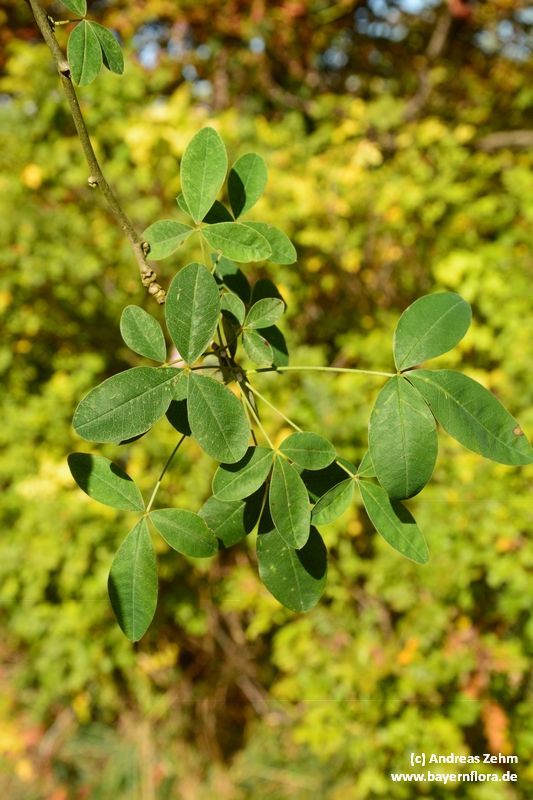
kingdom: Plantae
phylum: Tracheophyta
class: Magnoliopsida
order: Fabales
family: Fabaceae
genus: Laburnum
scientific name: Laburnum anagyroides
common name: Laburnum
